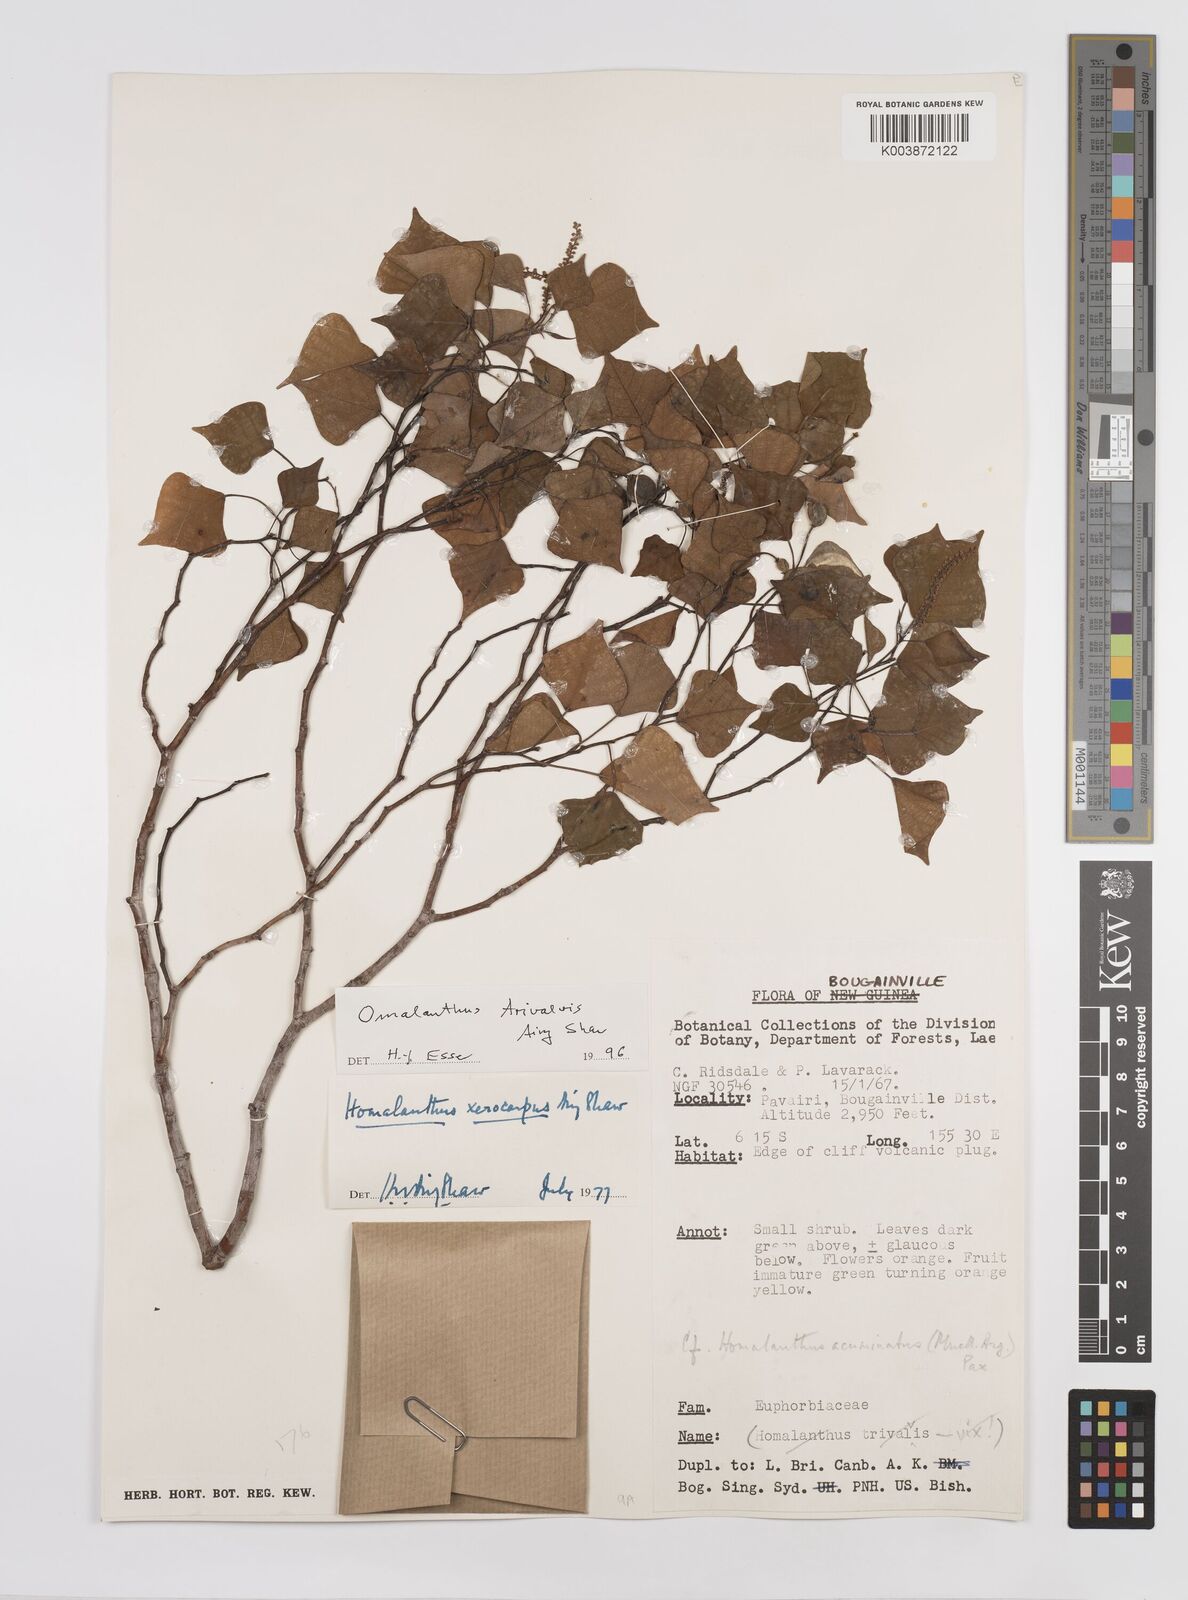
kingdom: Plantae
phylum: Tracheophyta
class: Magnoliopsida
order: Malpighiales
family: Euphorbiaceae
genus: Homalanthus
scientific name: Homalanthus trivalvis
